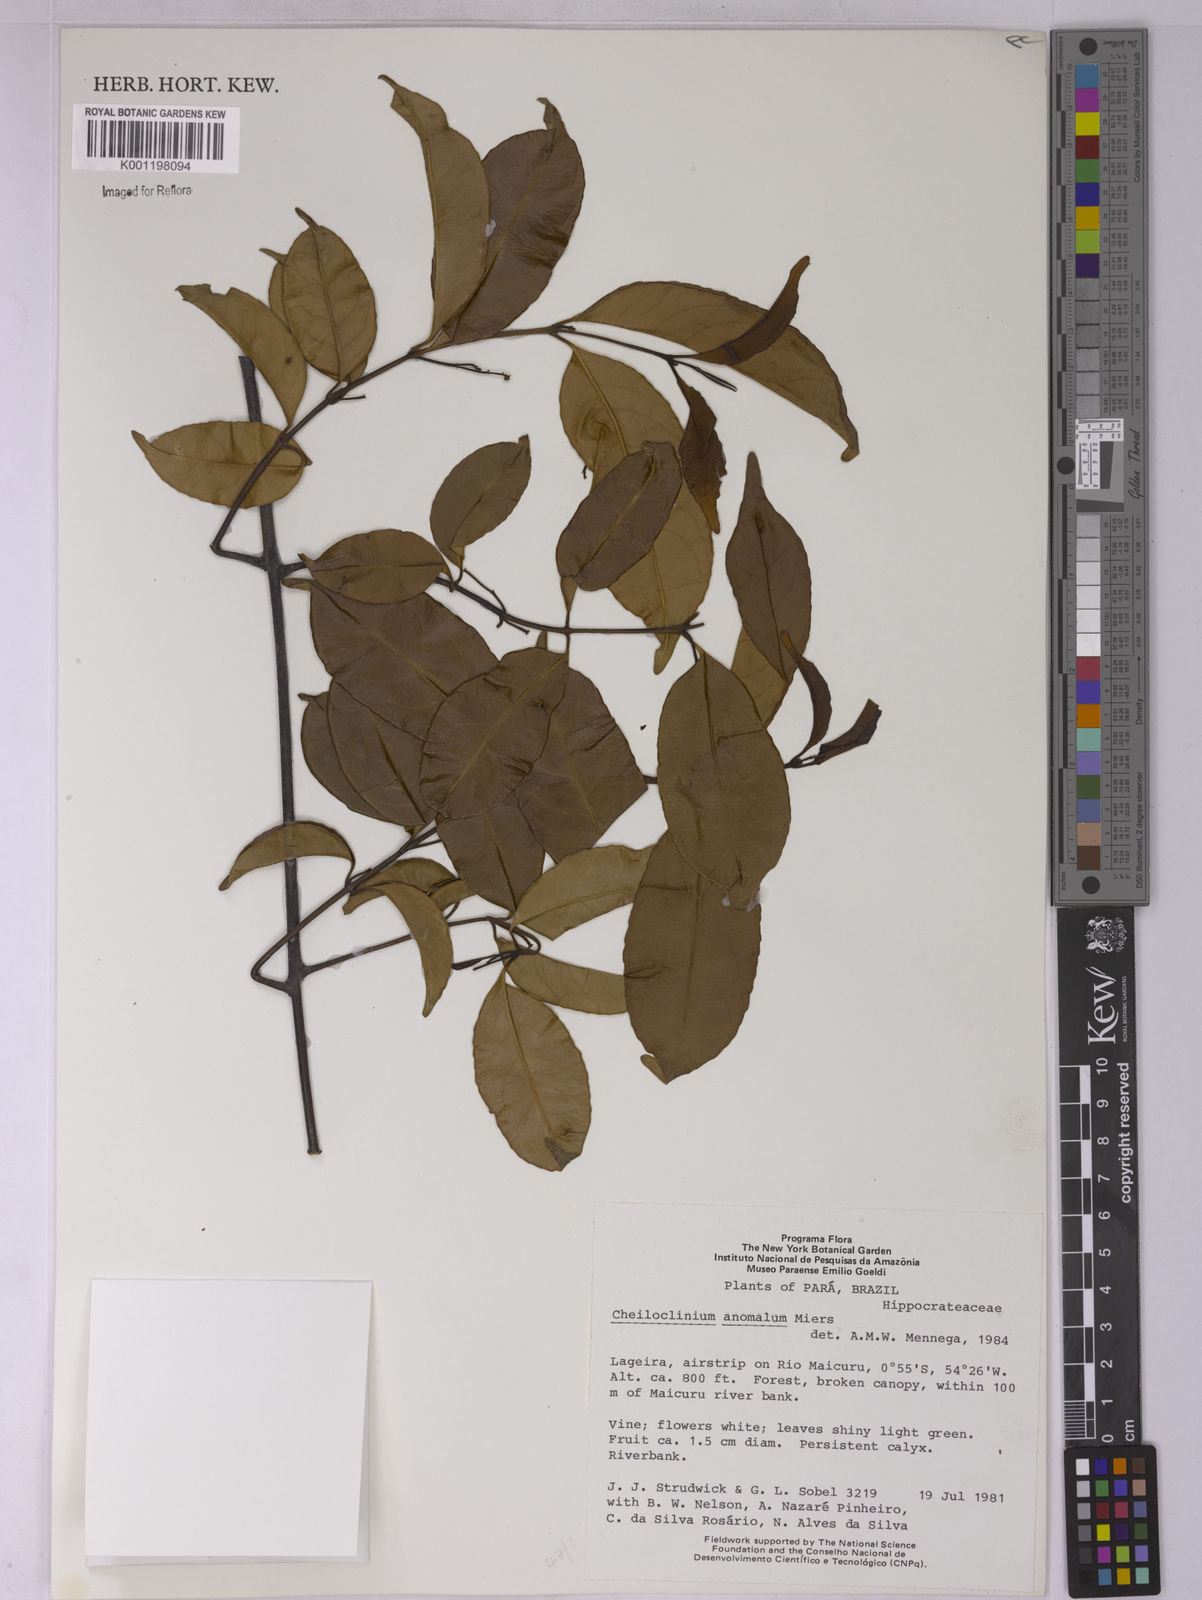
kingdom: Plantae
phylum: Tracheophyta
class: Magnoliopsida
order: Celastrales
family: Celastraceae
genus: Cheiloclinium
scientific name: Cheiloclinium anomalum
